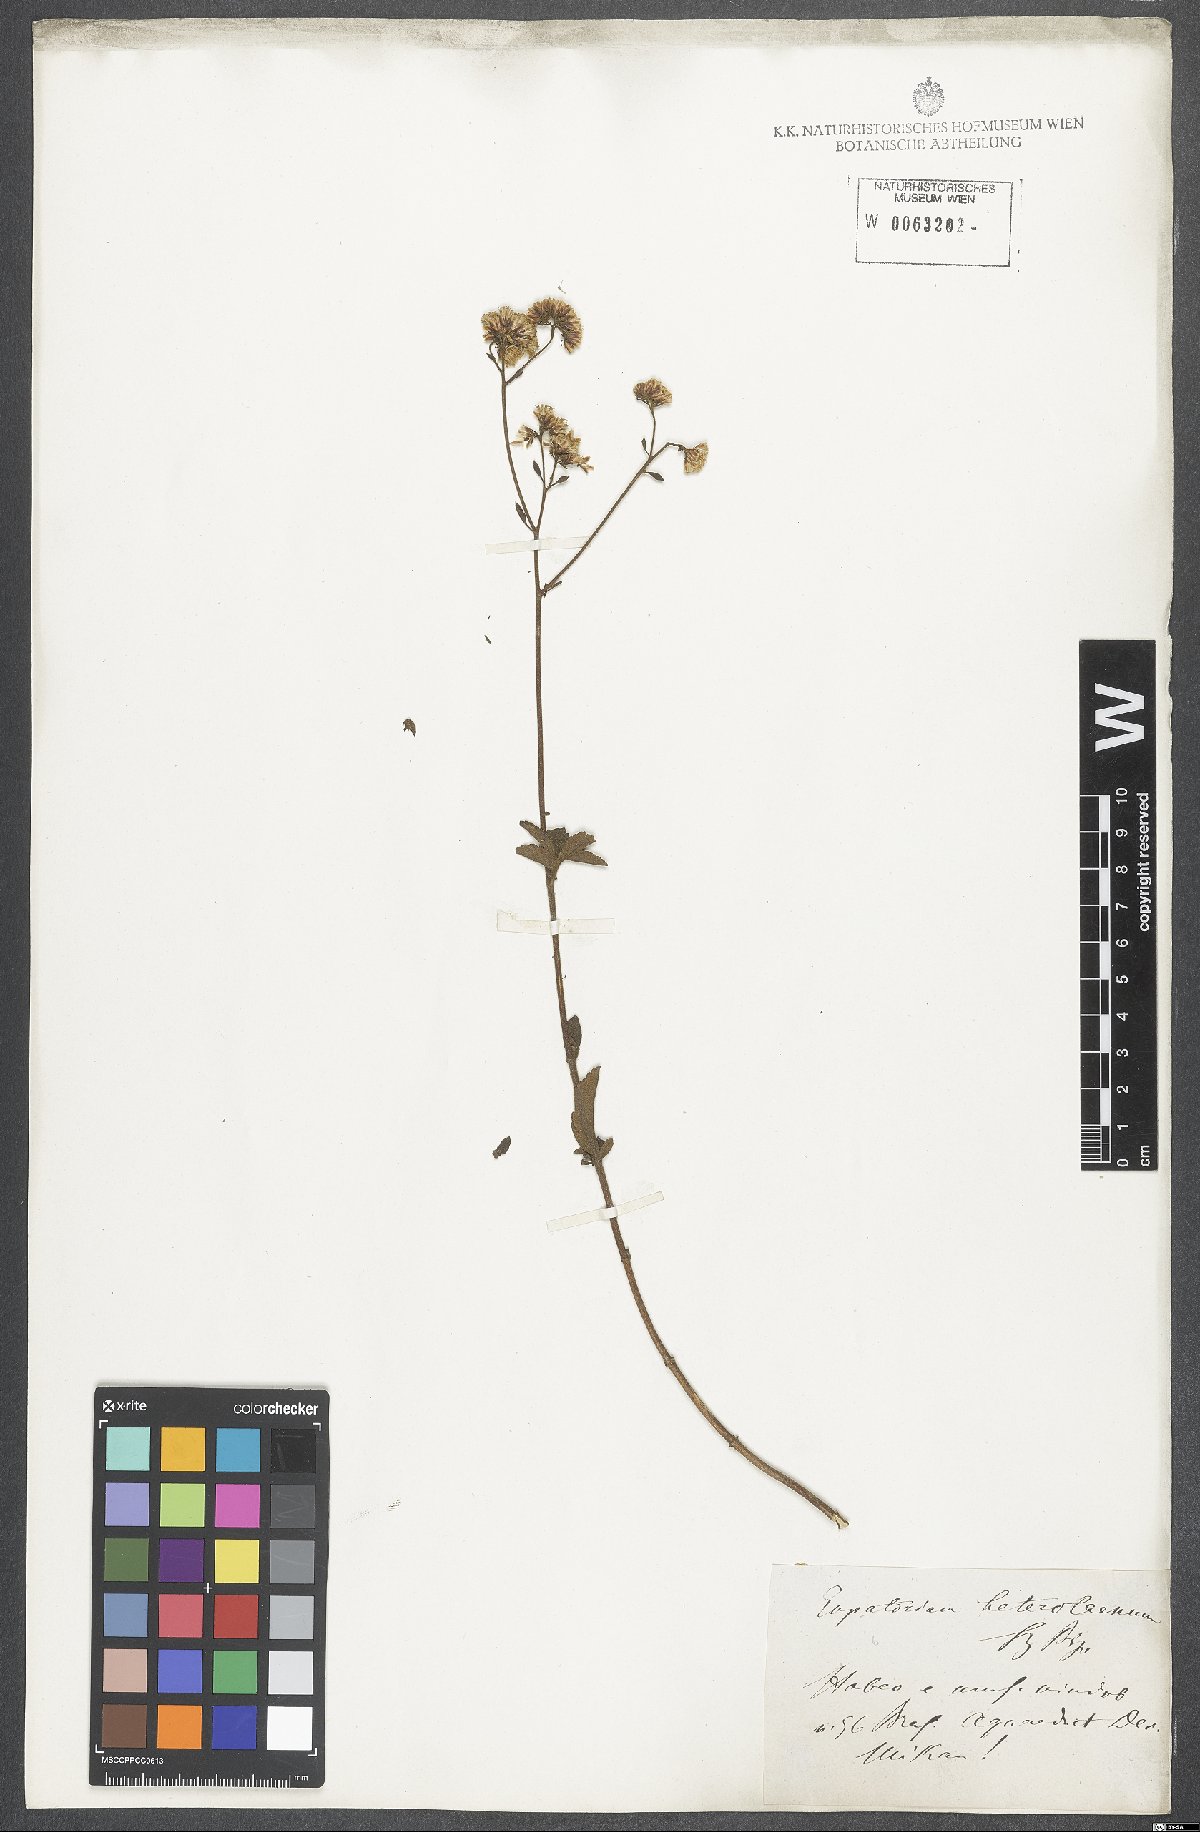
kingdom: Plantae
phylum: Tracheophyta
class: Magnoliopsida
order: Asterales
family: Asteraceae
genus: Grazielia
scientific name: Grazielia serrata
